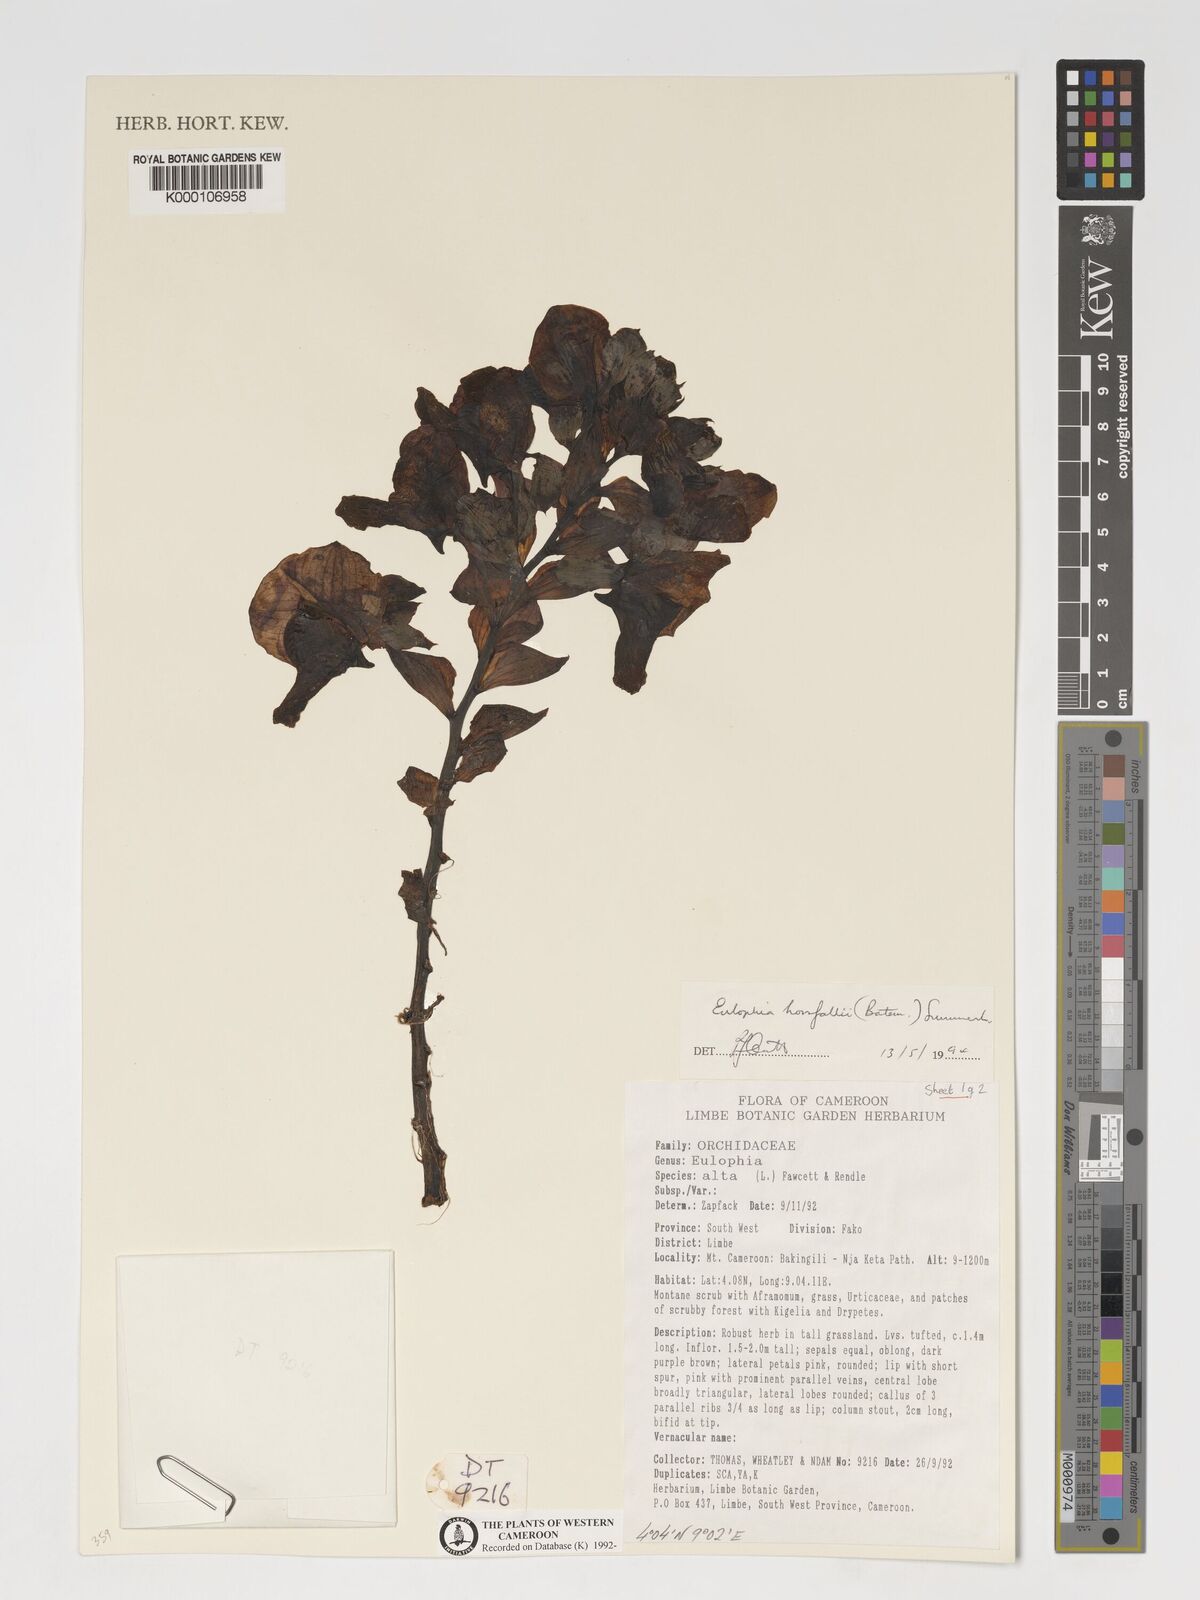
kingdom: Plantae
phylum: Tracheophyta
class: Liliopsida
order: Asparagales
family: Orchidaceae
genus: Eulophia
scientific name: Eulophia horsfallii
